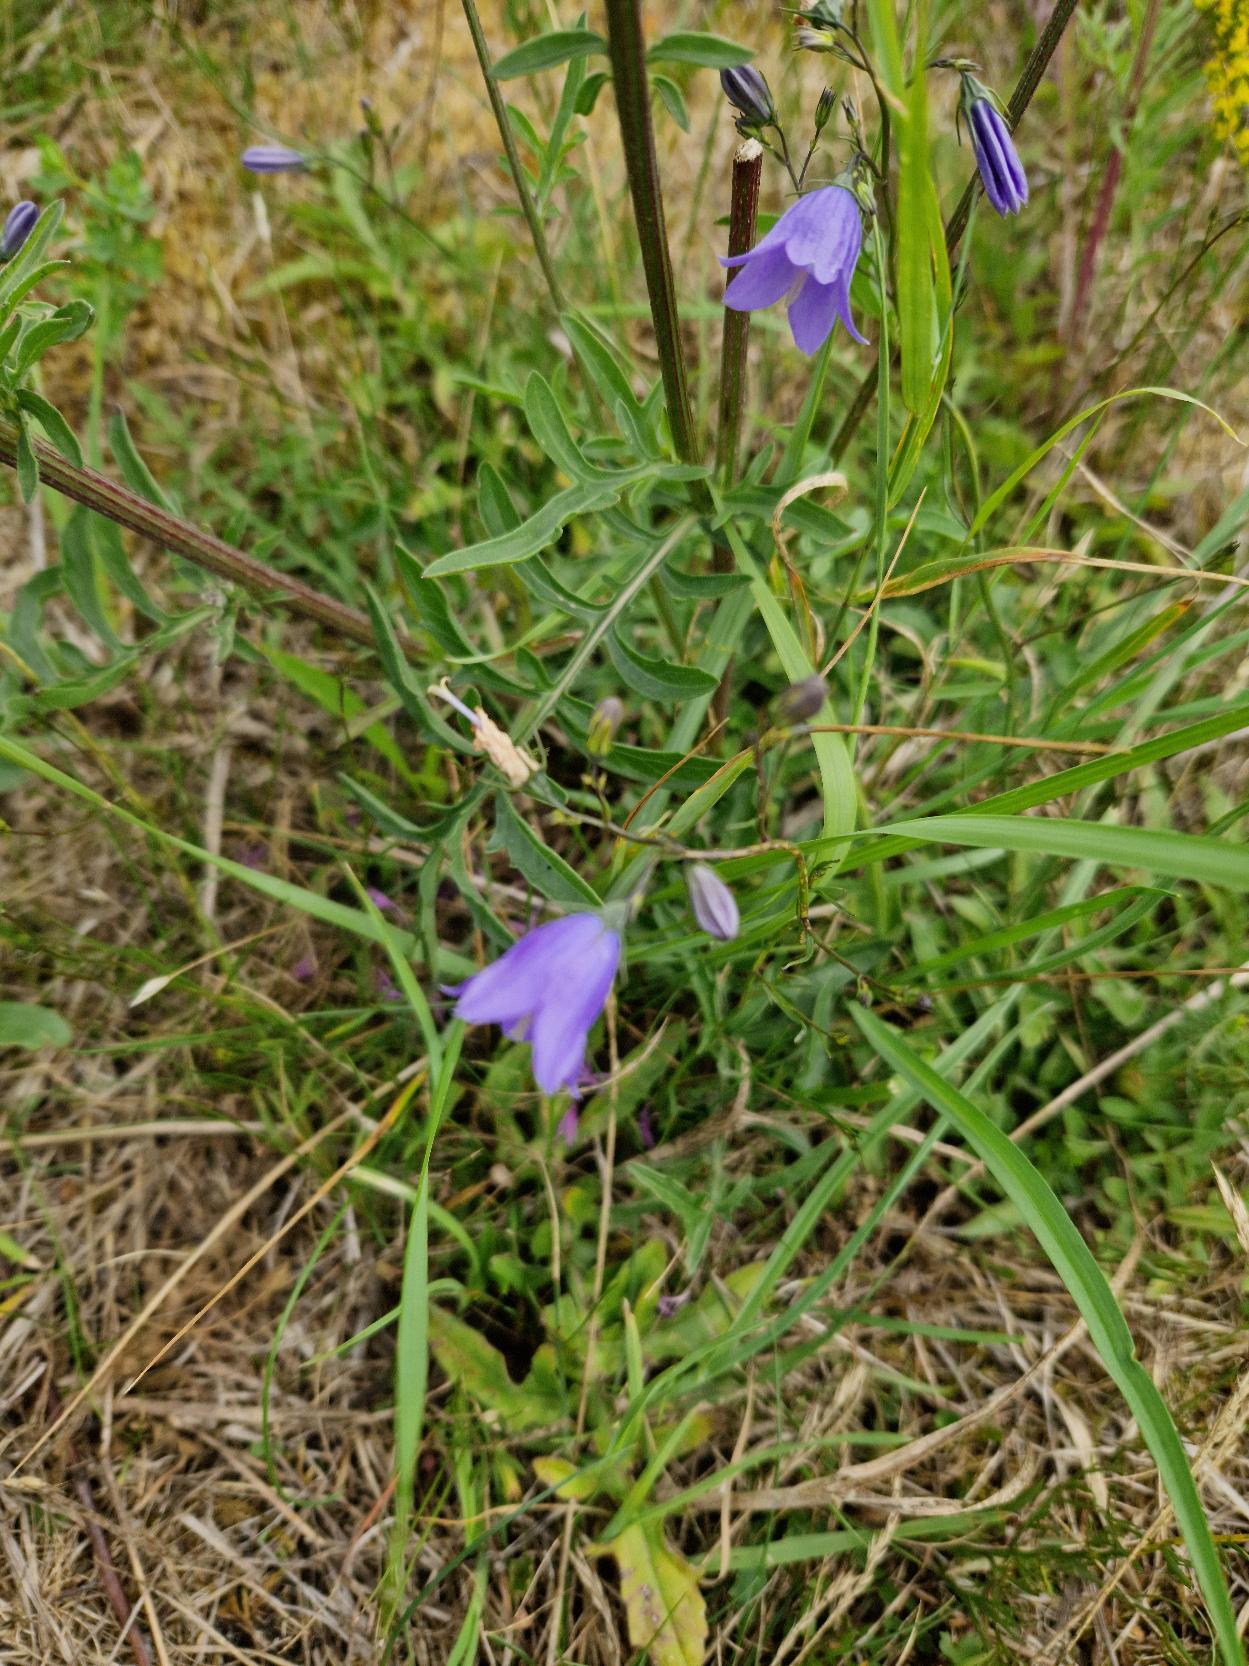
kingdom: Plantae
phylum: Tracheophyta
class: Magnoliopsida
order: Asterales
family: Campanulaceae
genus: Campanula
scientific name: Campanula rotundifolia
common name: Liden klokke
